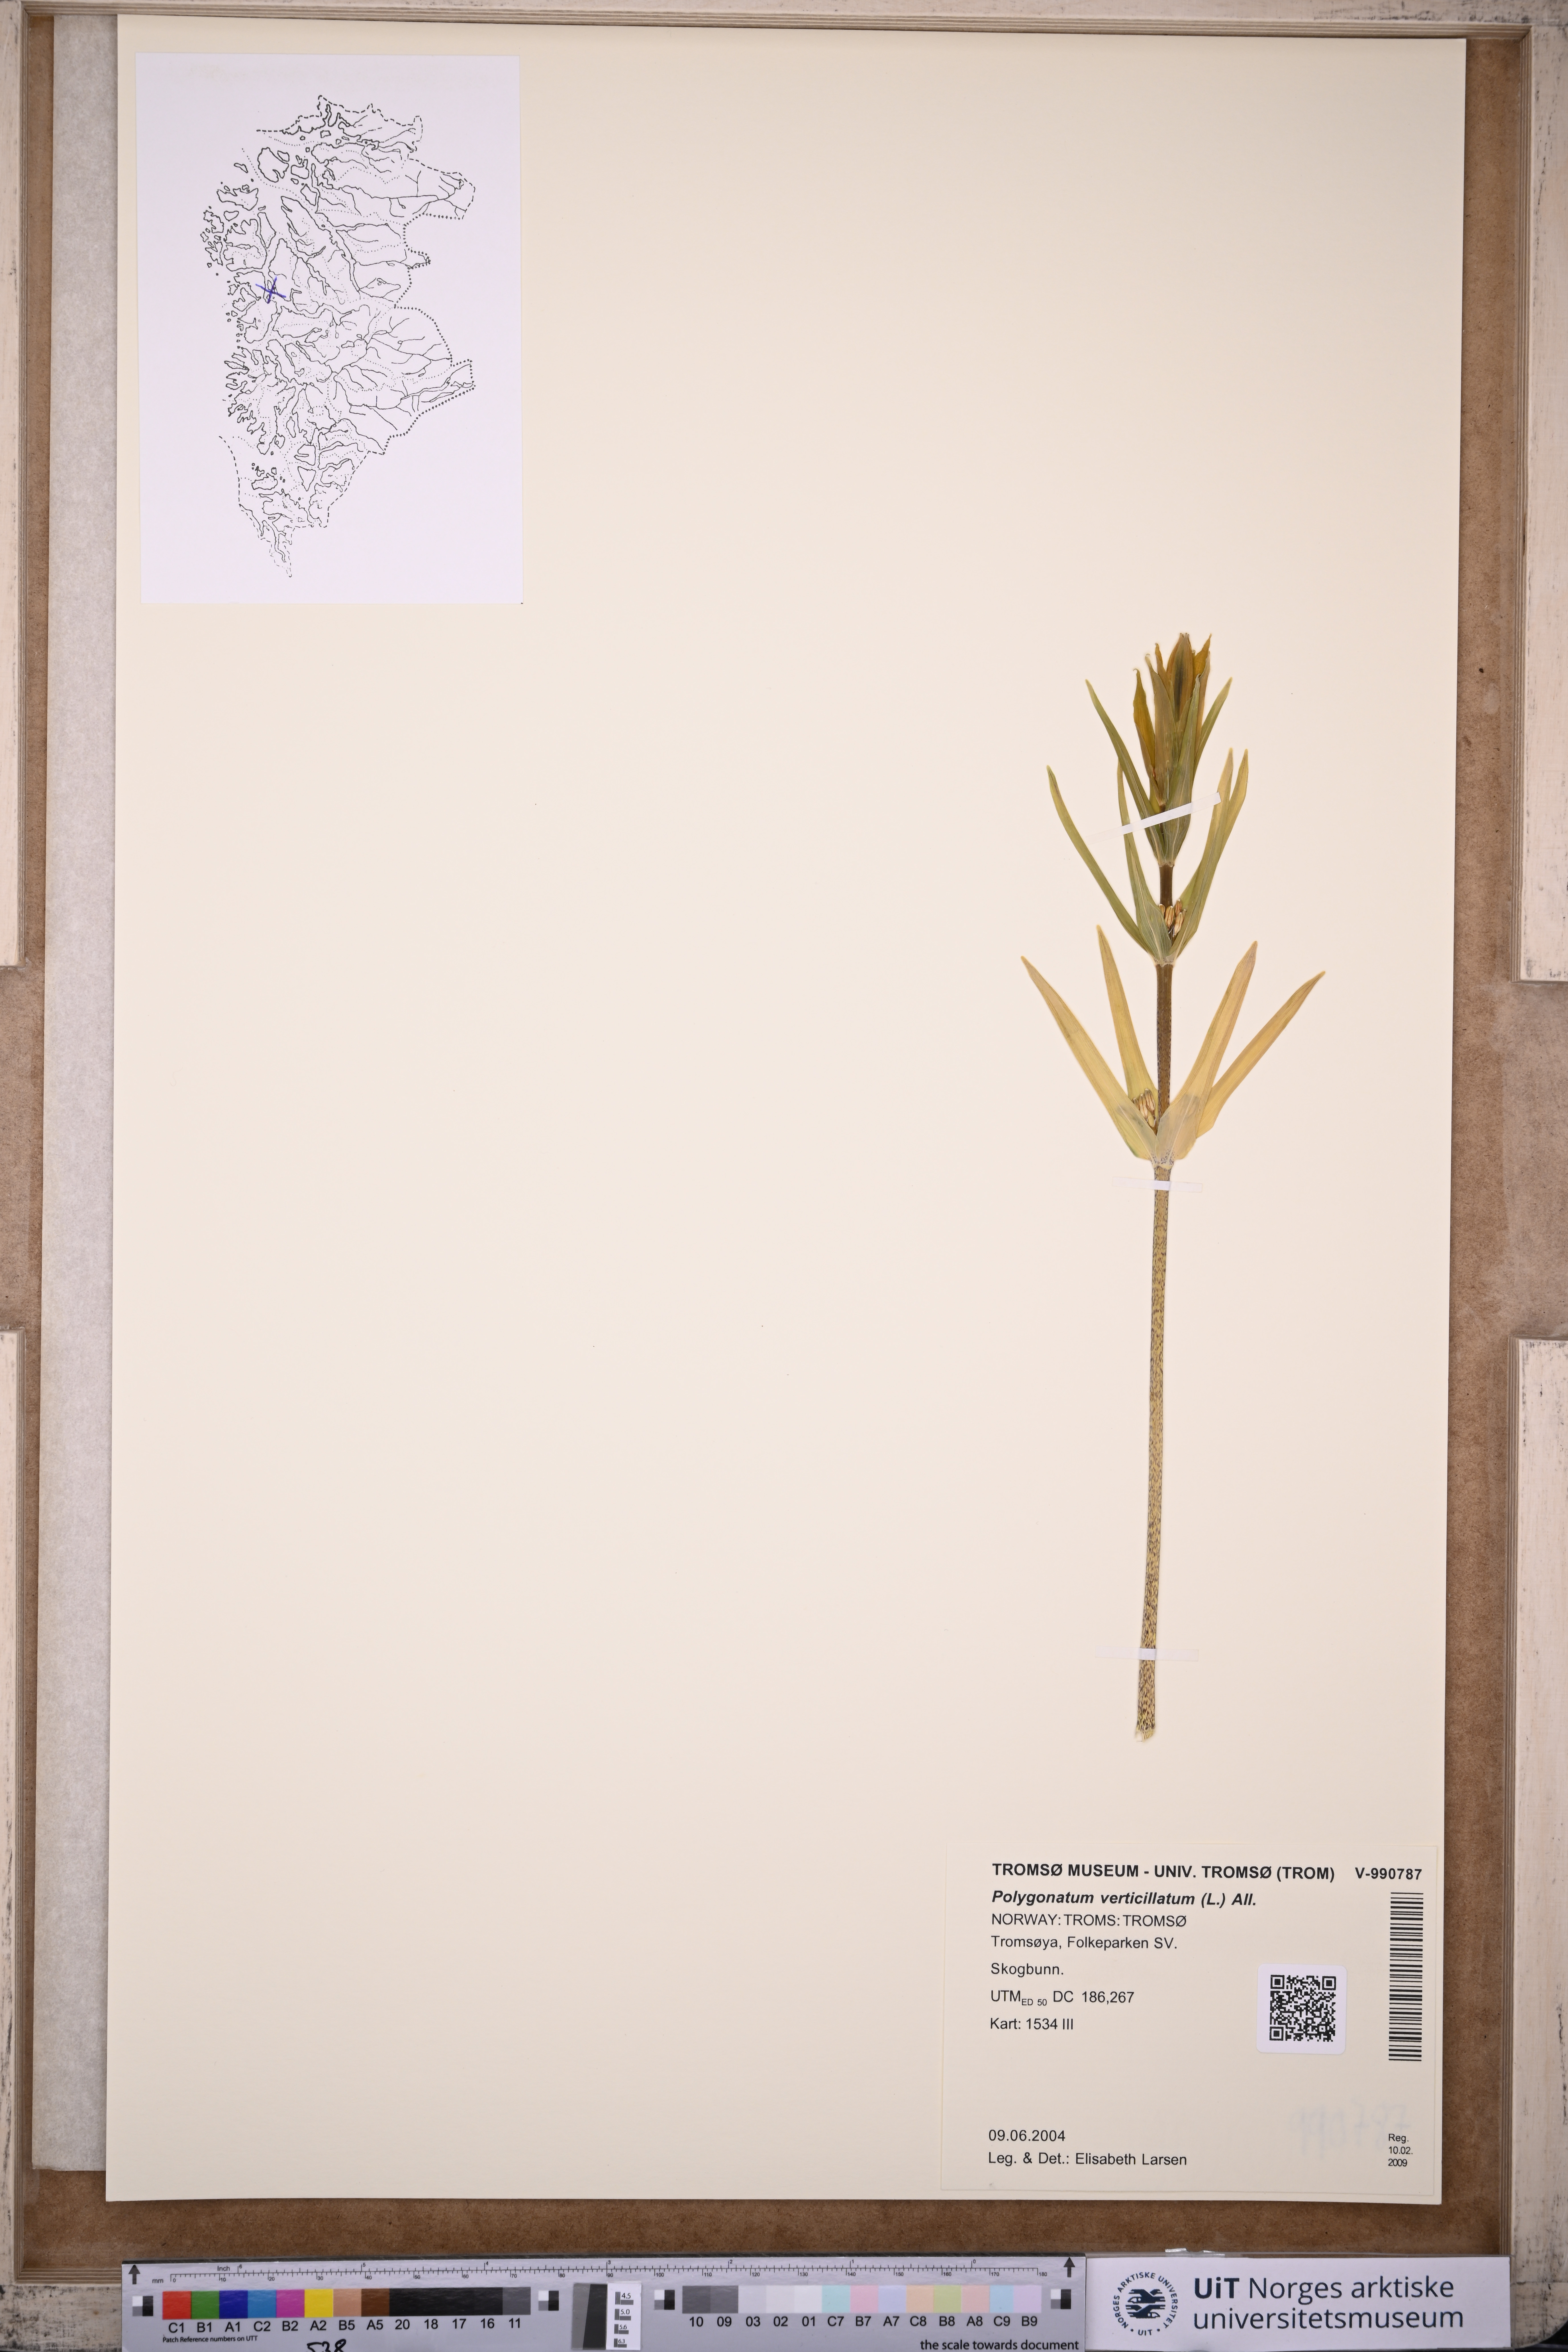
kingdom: Plantae
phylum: Tracheophyta
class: Liliopsida
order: Asparagales
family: Asparagaceae
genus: Polygonatum
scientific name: Polygonatum verticillatum
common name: Whorled solomon's-seal
